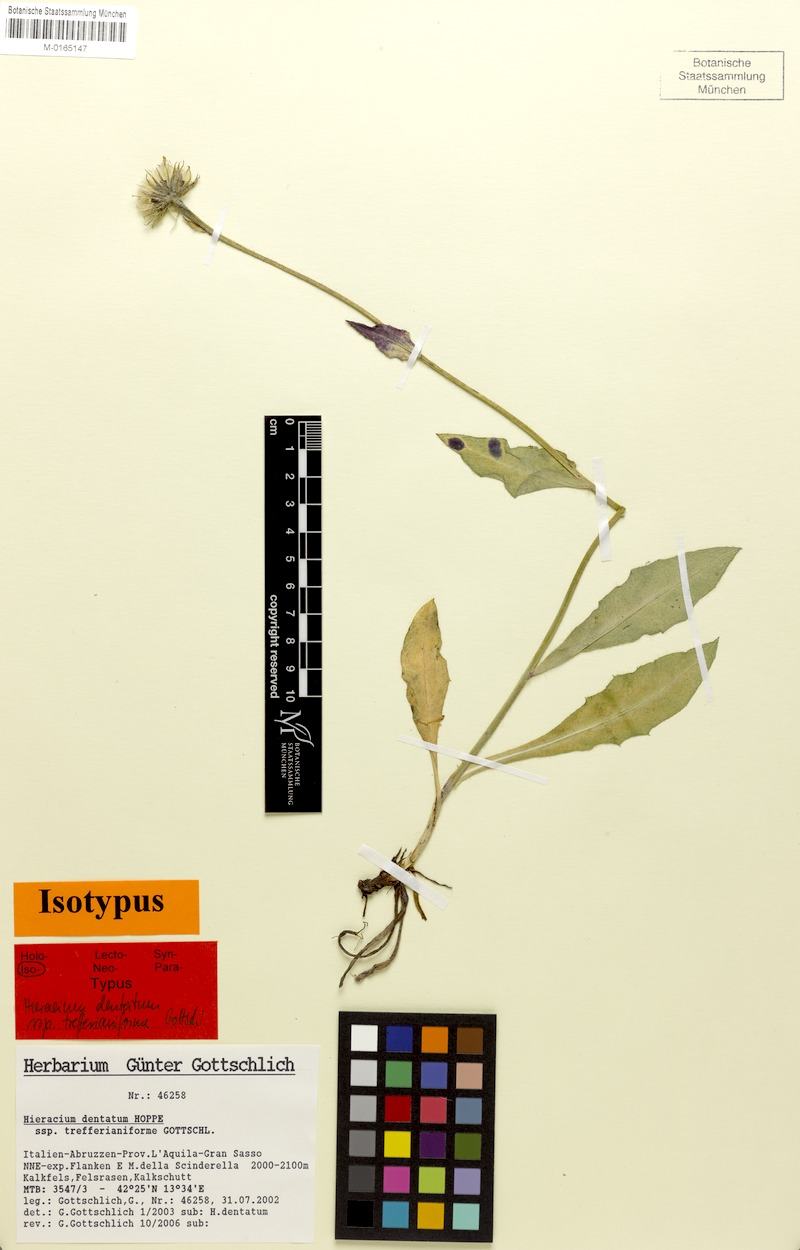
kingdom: Plantae
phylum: Tracheophyta
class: Magnoliopsida
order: Asterales
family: Asteraceae
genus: Hieracium
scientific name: Hieracium dentatum
